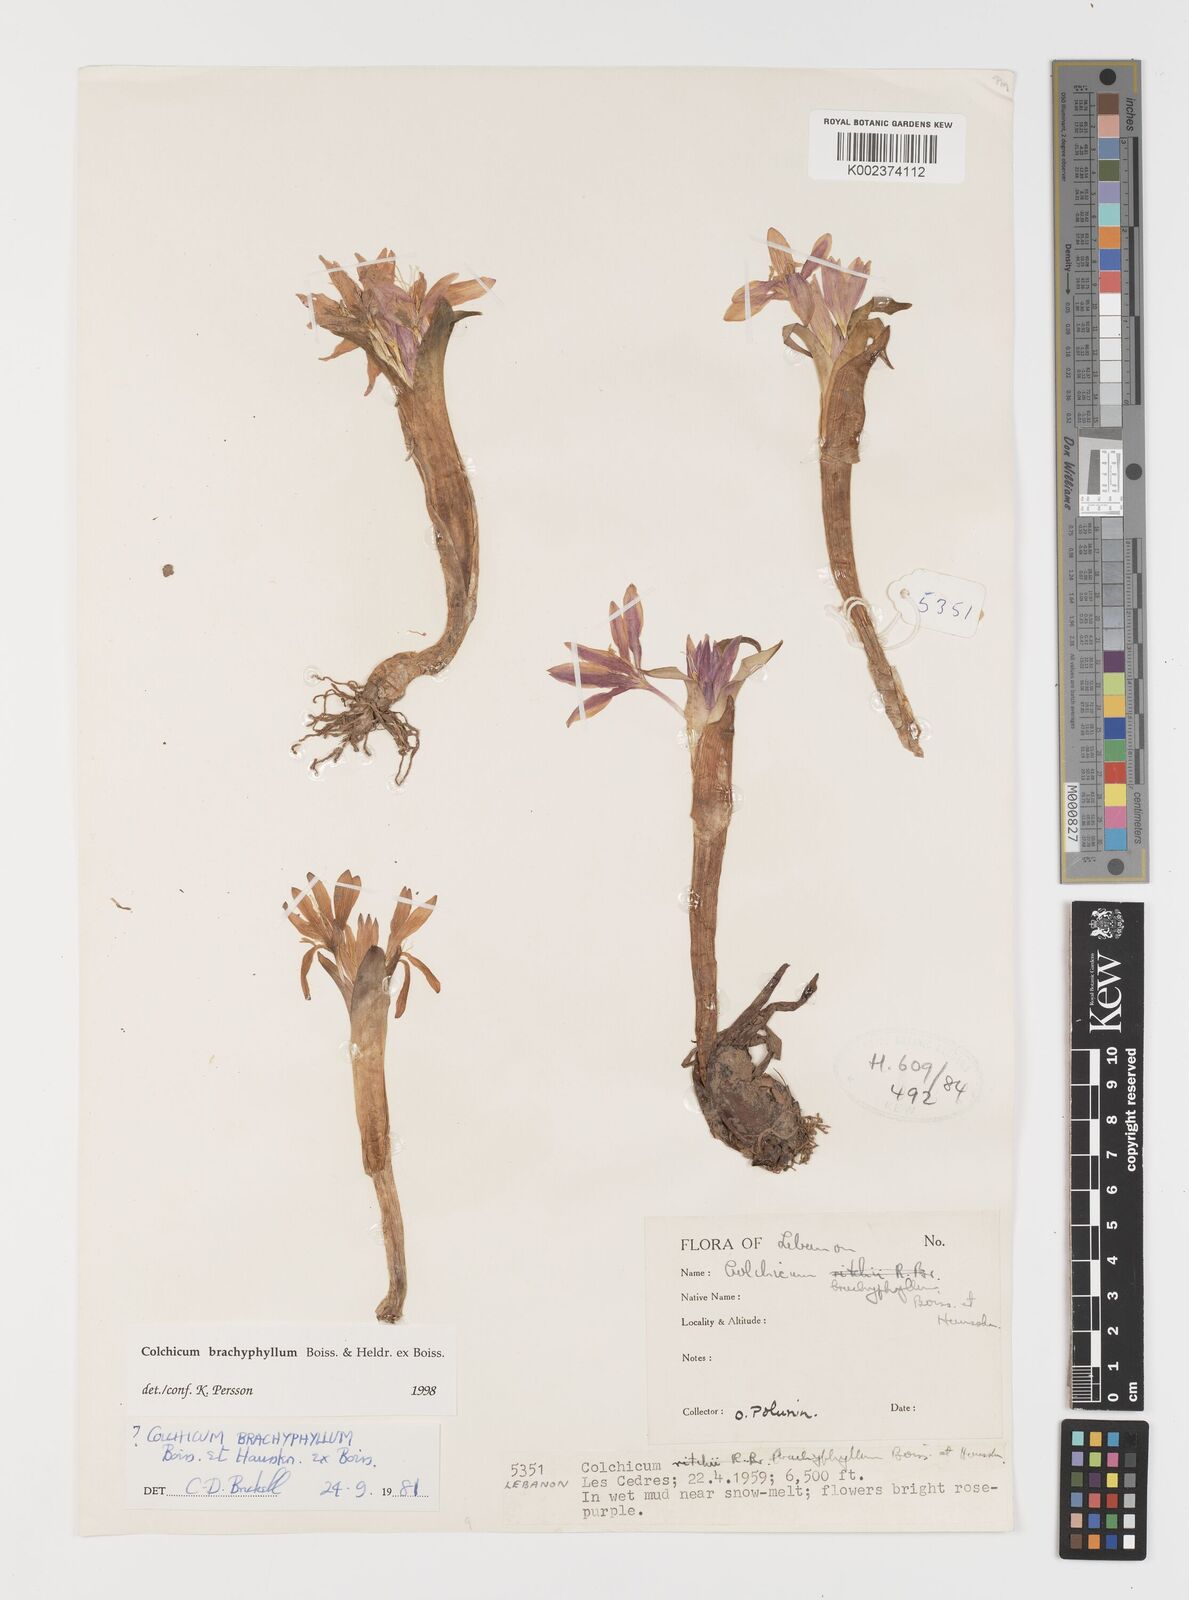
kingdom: Plantae
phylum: Tracheophyta
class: Liliopsida
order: Liliales
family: Colchicaceae
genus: Colchicum
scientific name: Colchicum szovitsii
